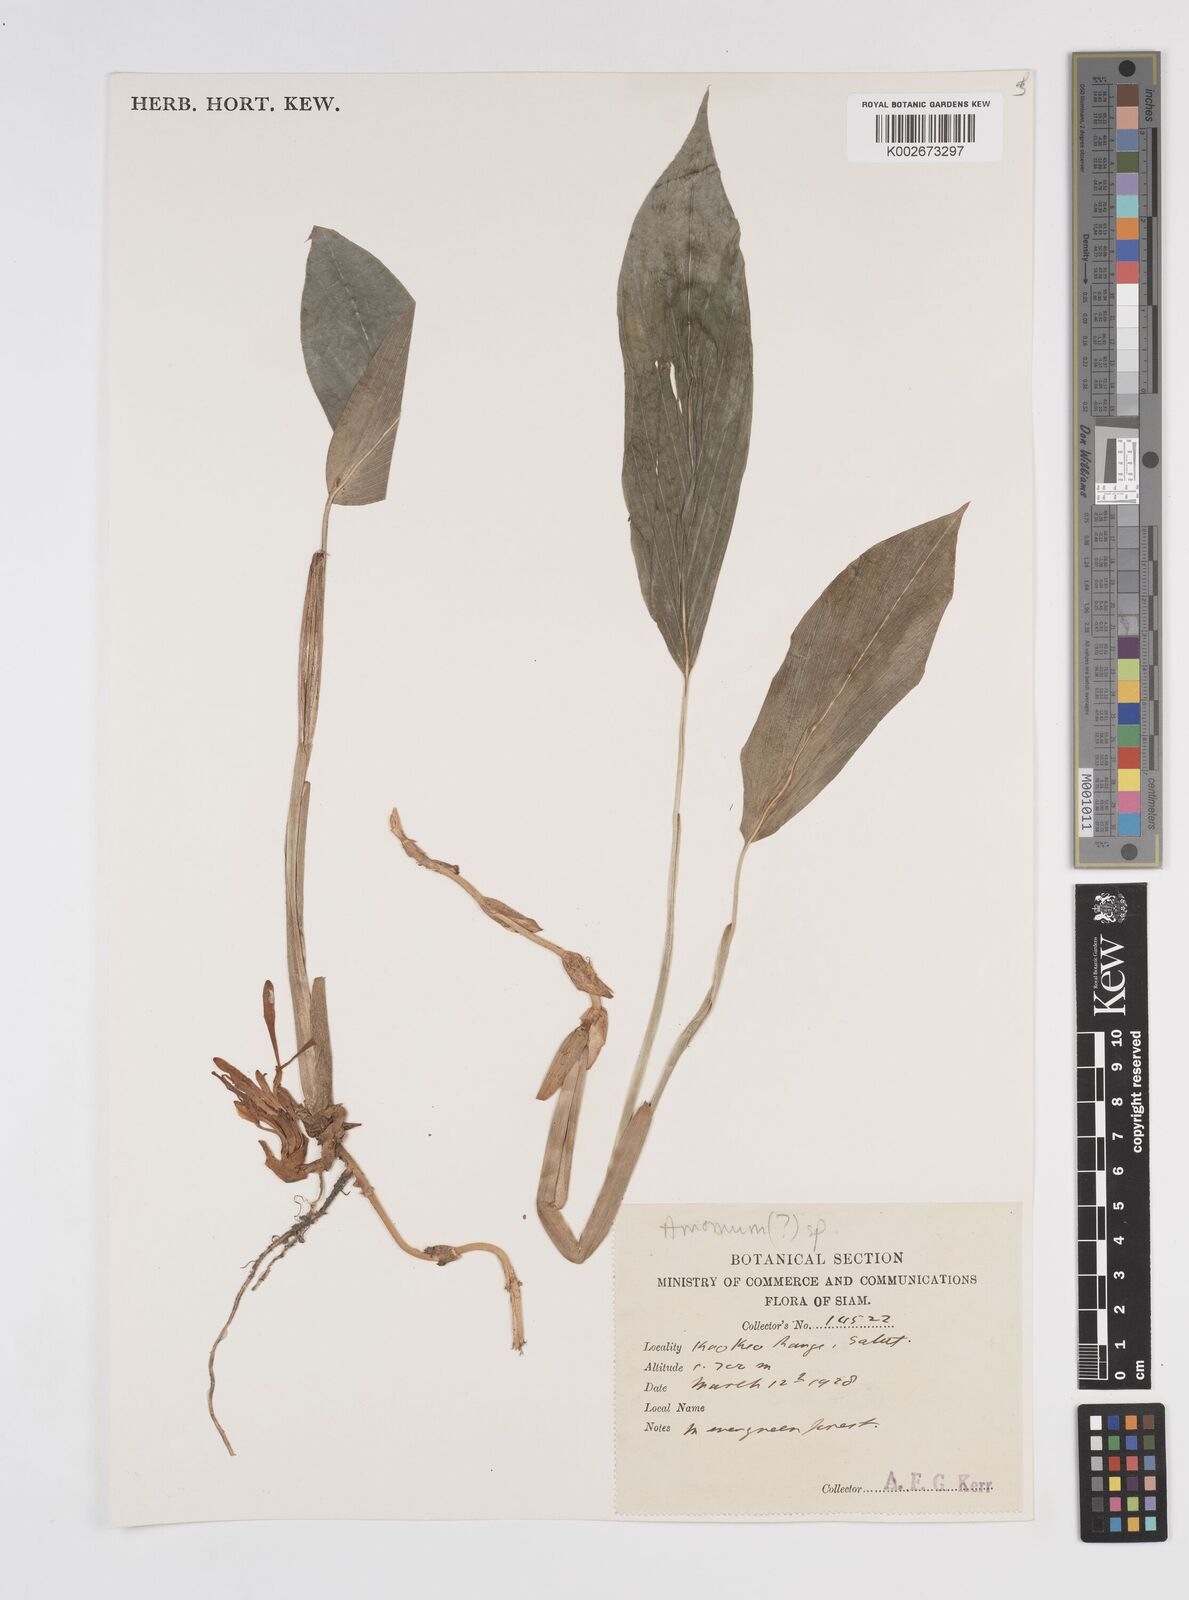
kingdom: Plantae
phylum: Tracheophyta
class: Liliopsida
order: Zingiberales
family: Zingiberaceae
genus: Amomum
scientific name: Amomum
